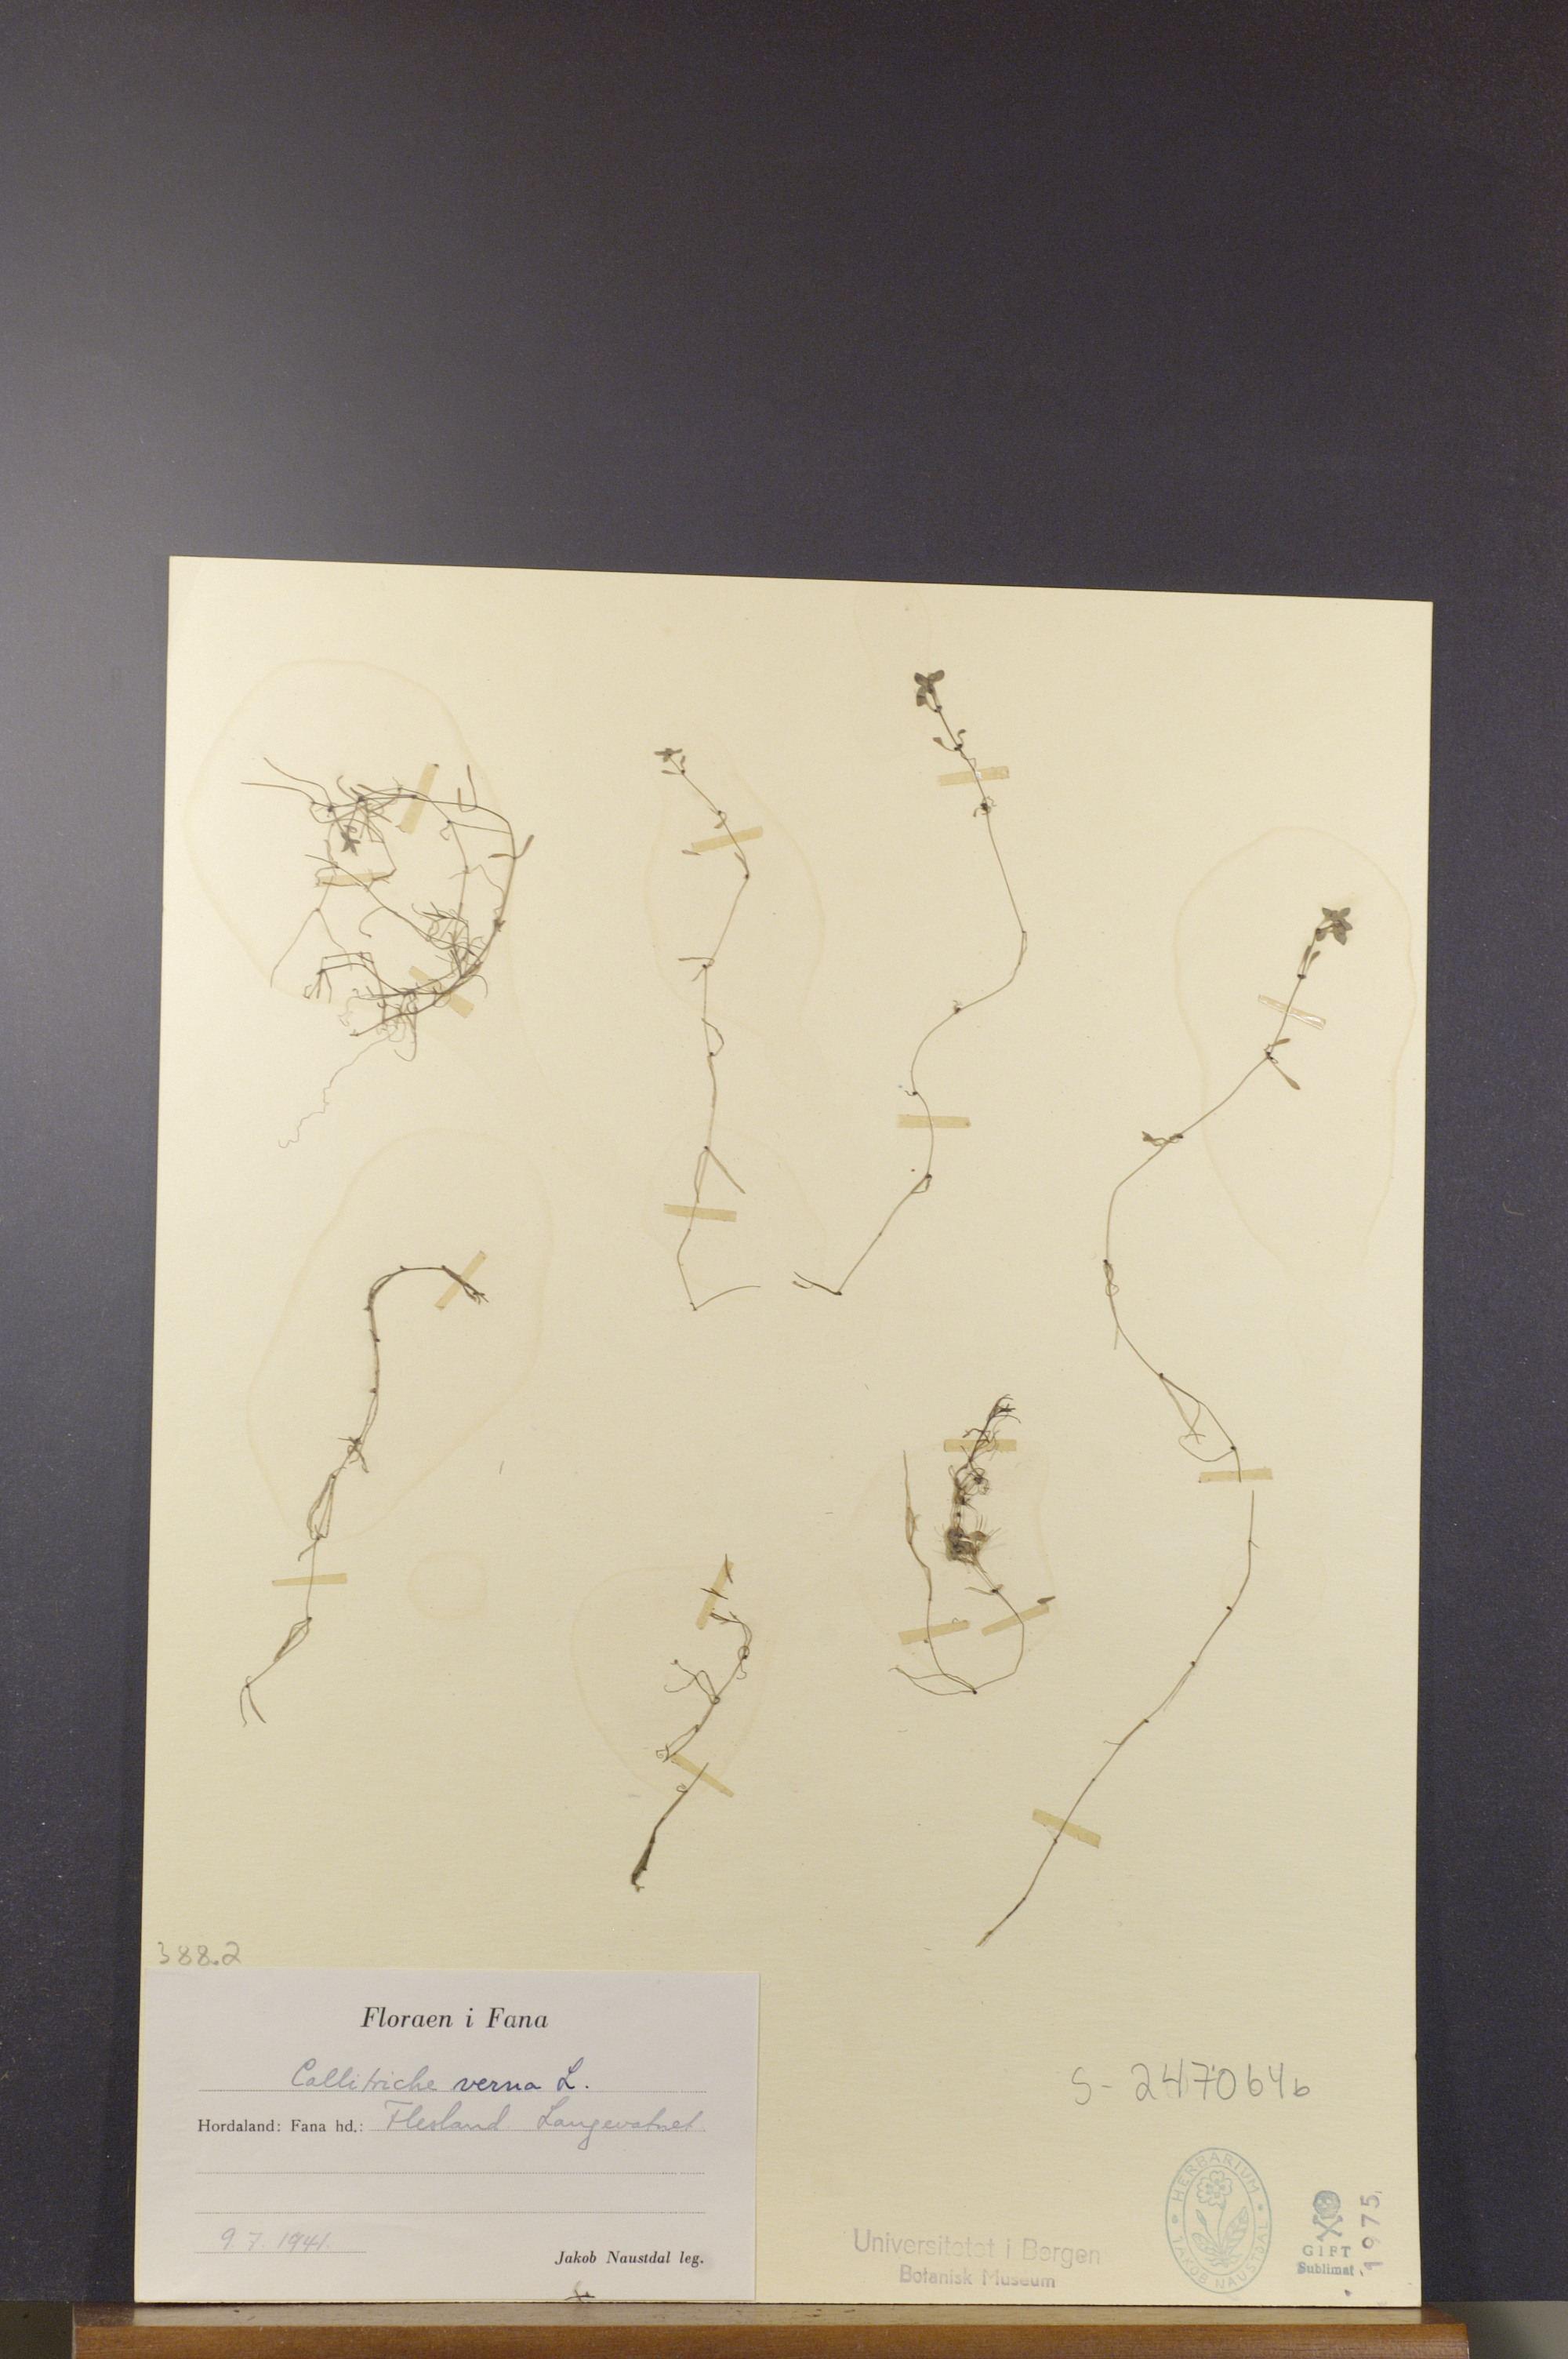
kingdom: Plantae
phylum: Tracheophyta
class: Magnoliopsida
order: Lamiales
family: Plantaginaceae
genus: Callitriche
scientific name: Callitriche palustris
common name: Spring water-starwort
